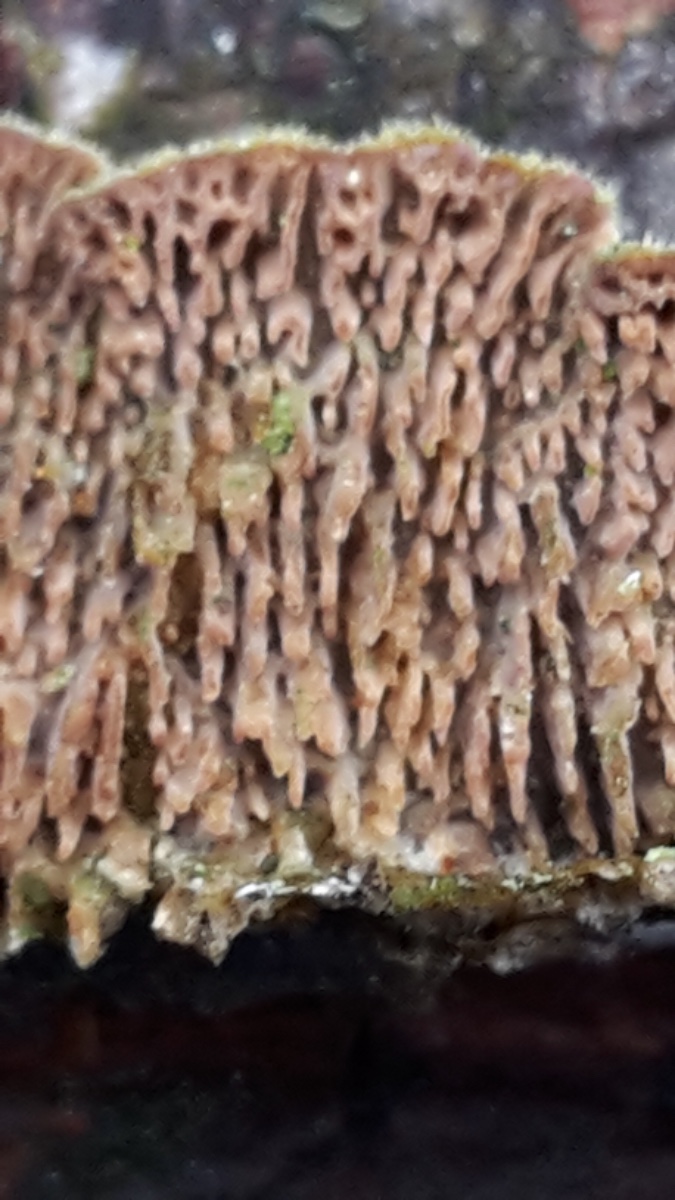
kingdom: Fungi
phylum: Basidiomycota
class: Agaricomycetes
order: Hymenochaetales
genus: Trichaptum
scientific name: Trichaptum fuscoviolaceum
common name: tandet violporesvamp
